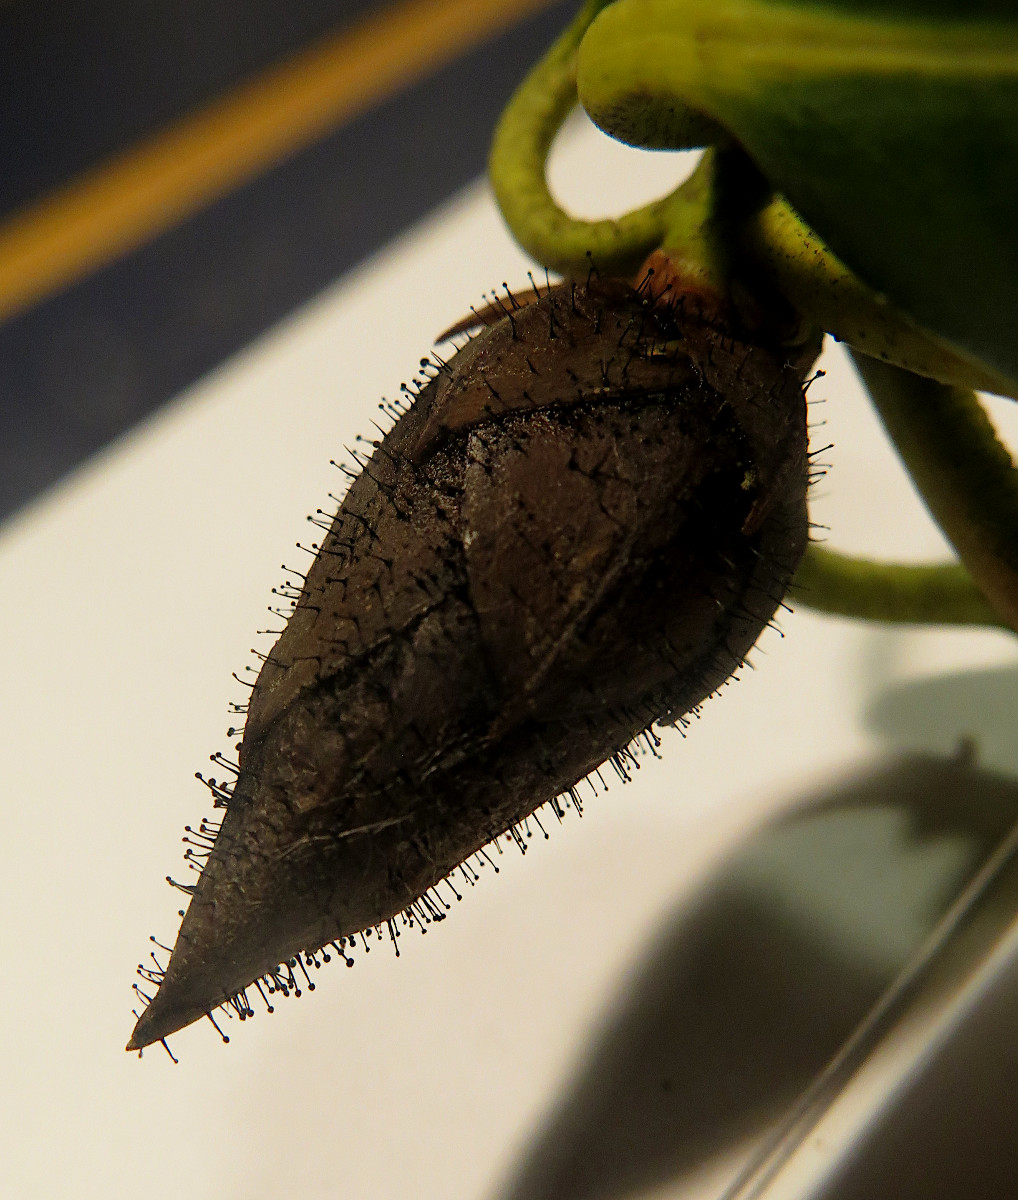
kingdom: Fungi
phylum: Ascomycota
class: Dothideomycetes
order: Pleosporales
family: Melanommataceae
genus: Seifertia
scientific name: Seifertia azaleae
